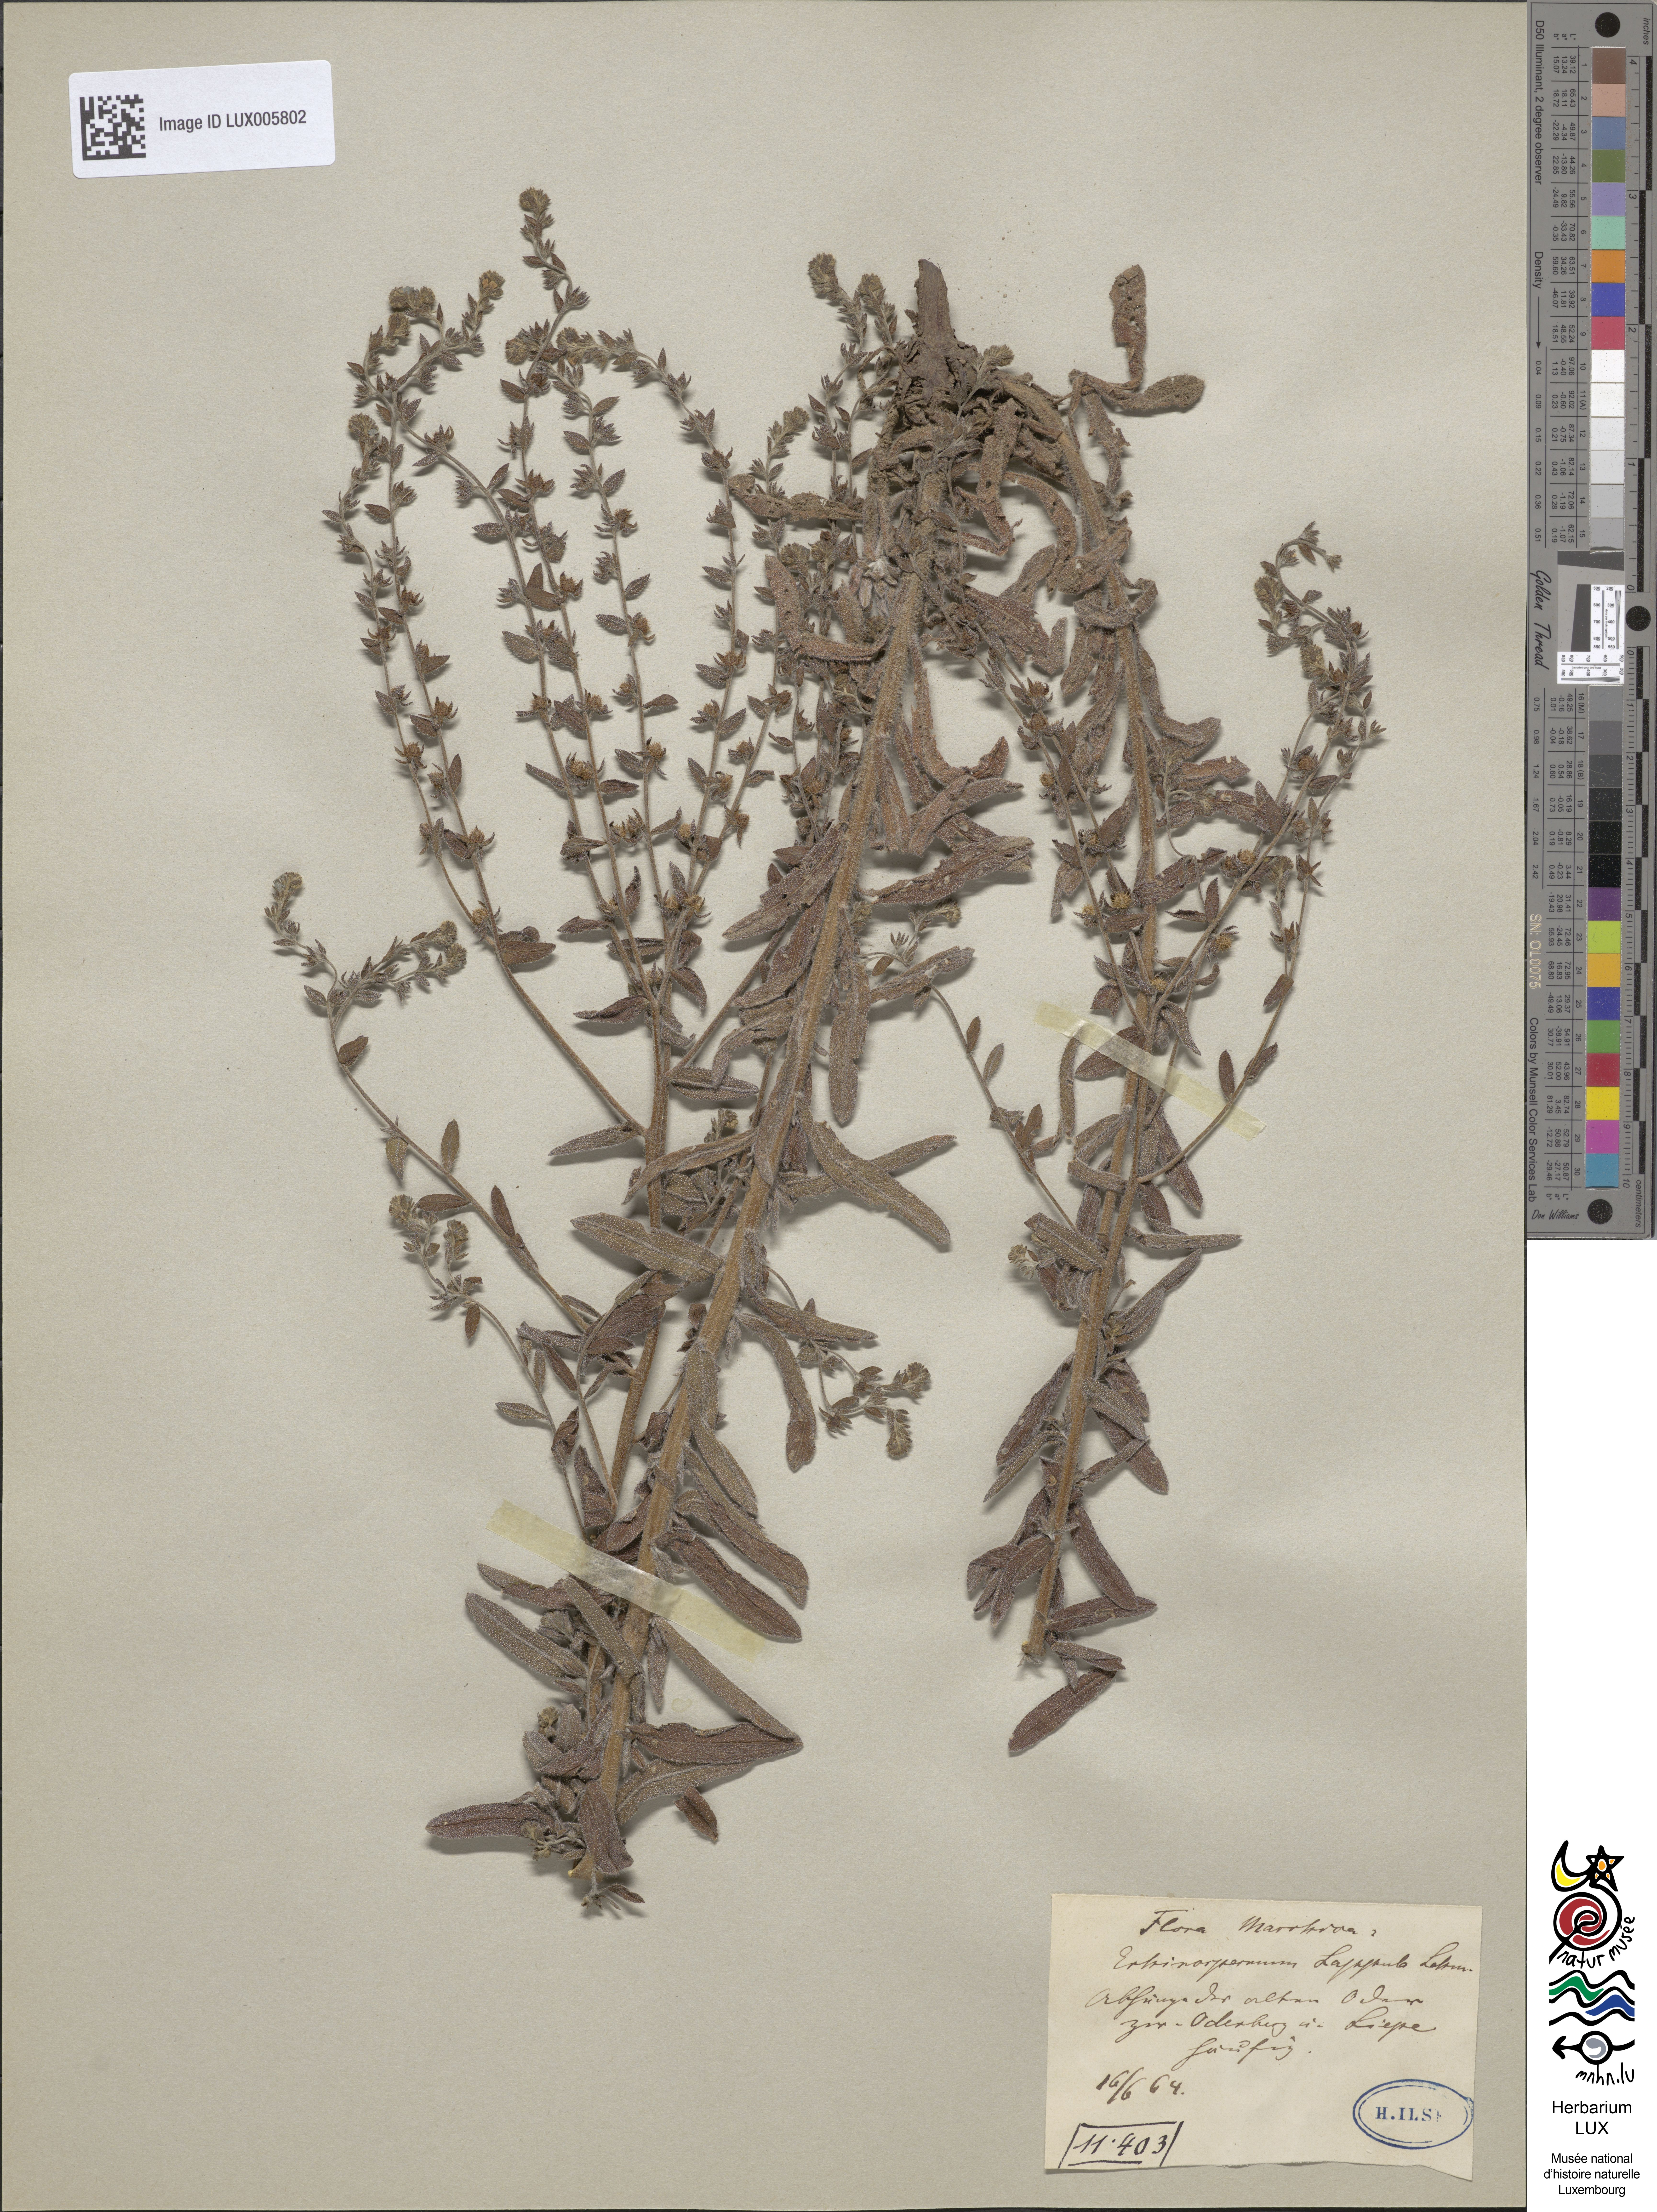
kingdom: Plantae
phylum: Tracheophyta
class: Magnoliopsida
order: Boraginales
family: Boraginaceae
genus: Lappula
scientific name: Lappula squarrosa
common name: European stickseed
